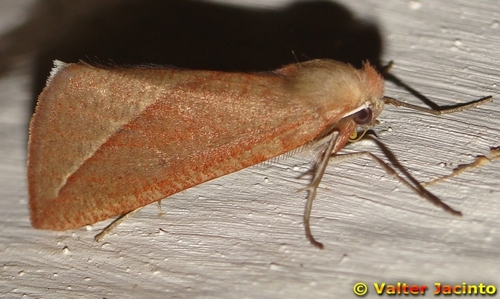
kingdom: Animalia
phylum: Arthropoda
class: Insecta
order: Lepidoptera
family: Geometridae
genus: Compsoptera
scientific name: Compsoptera opacaria
